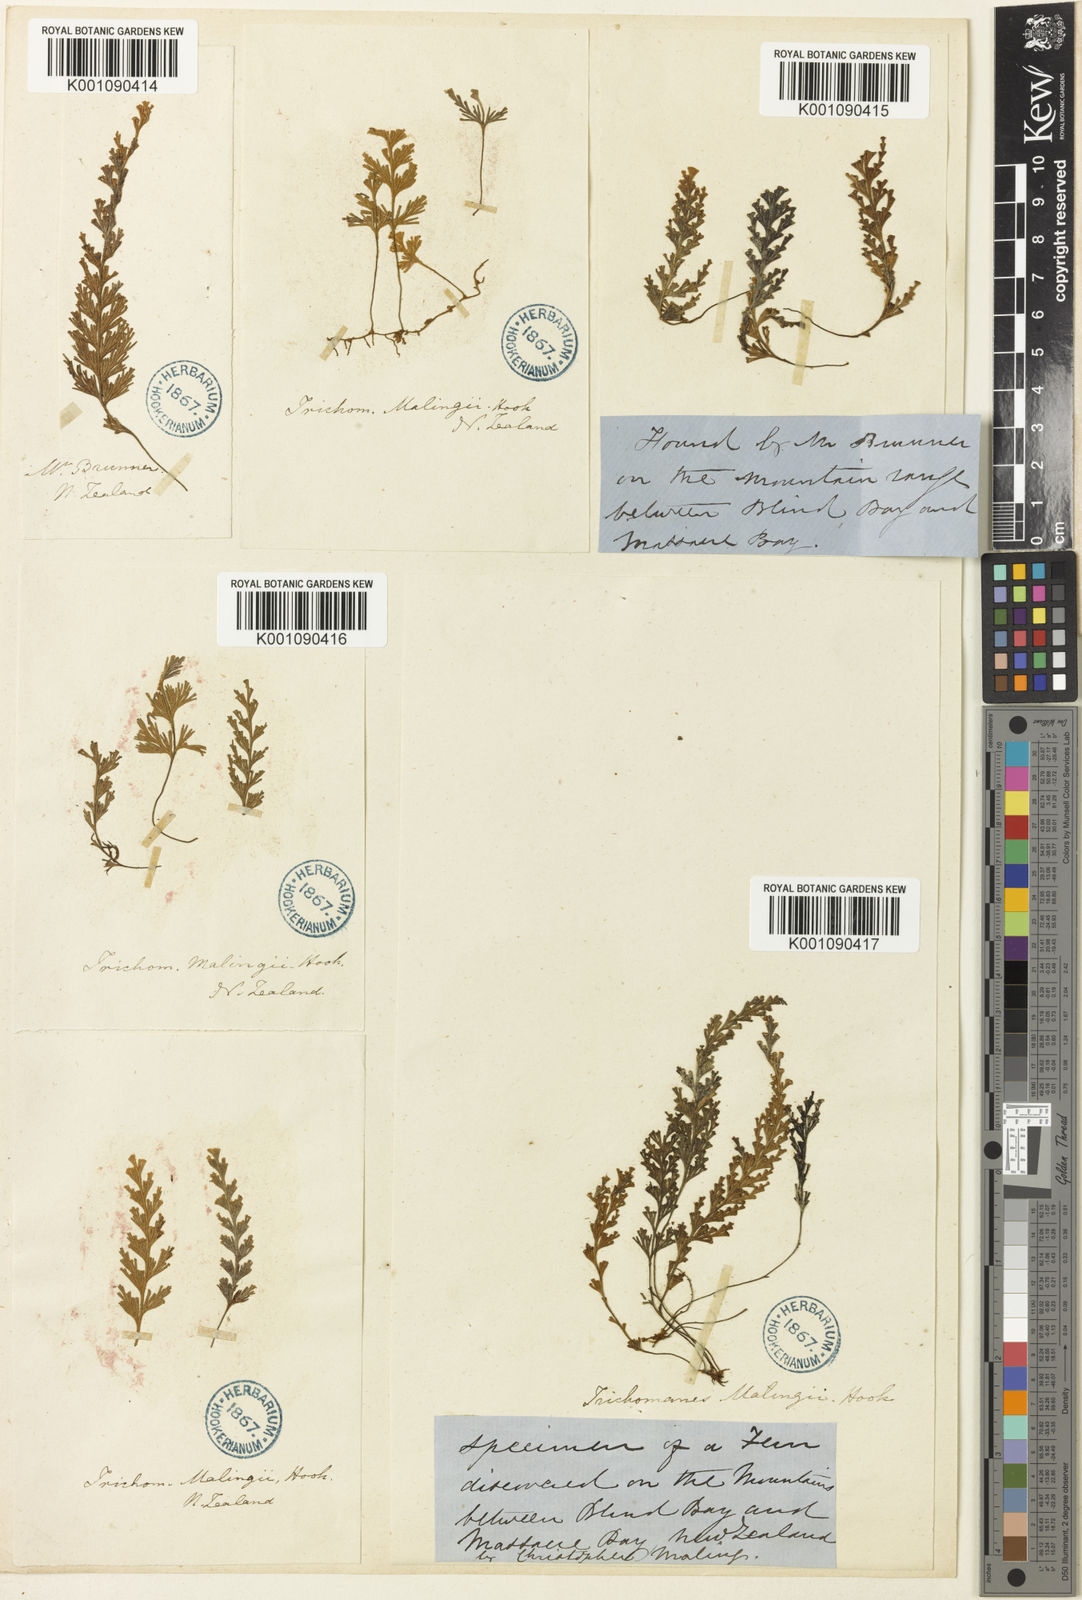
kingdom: Plantae
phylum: Tracheophyta
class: Polypodiopsida
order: Hymenophyllales
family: Hymenophyllaceae
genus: Hymenophyllum
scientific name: Hymenophyllum malingii
